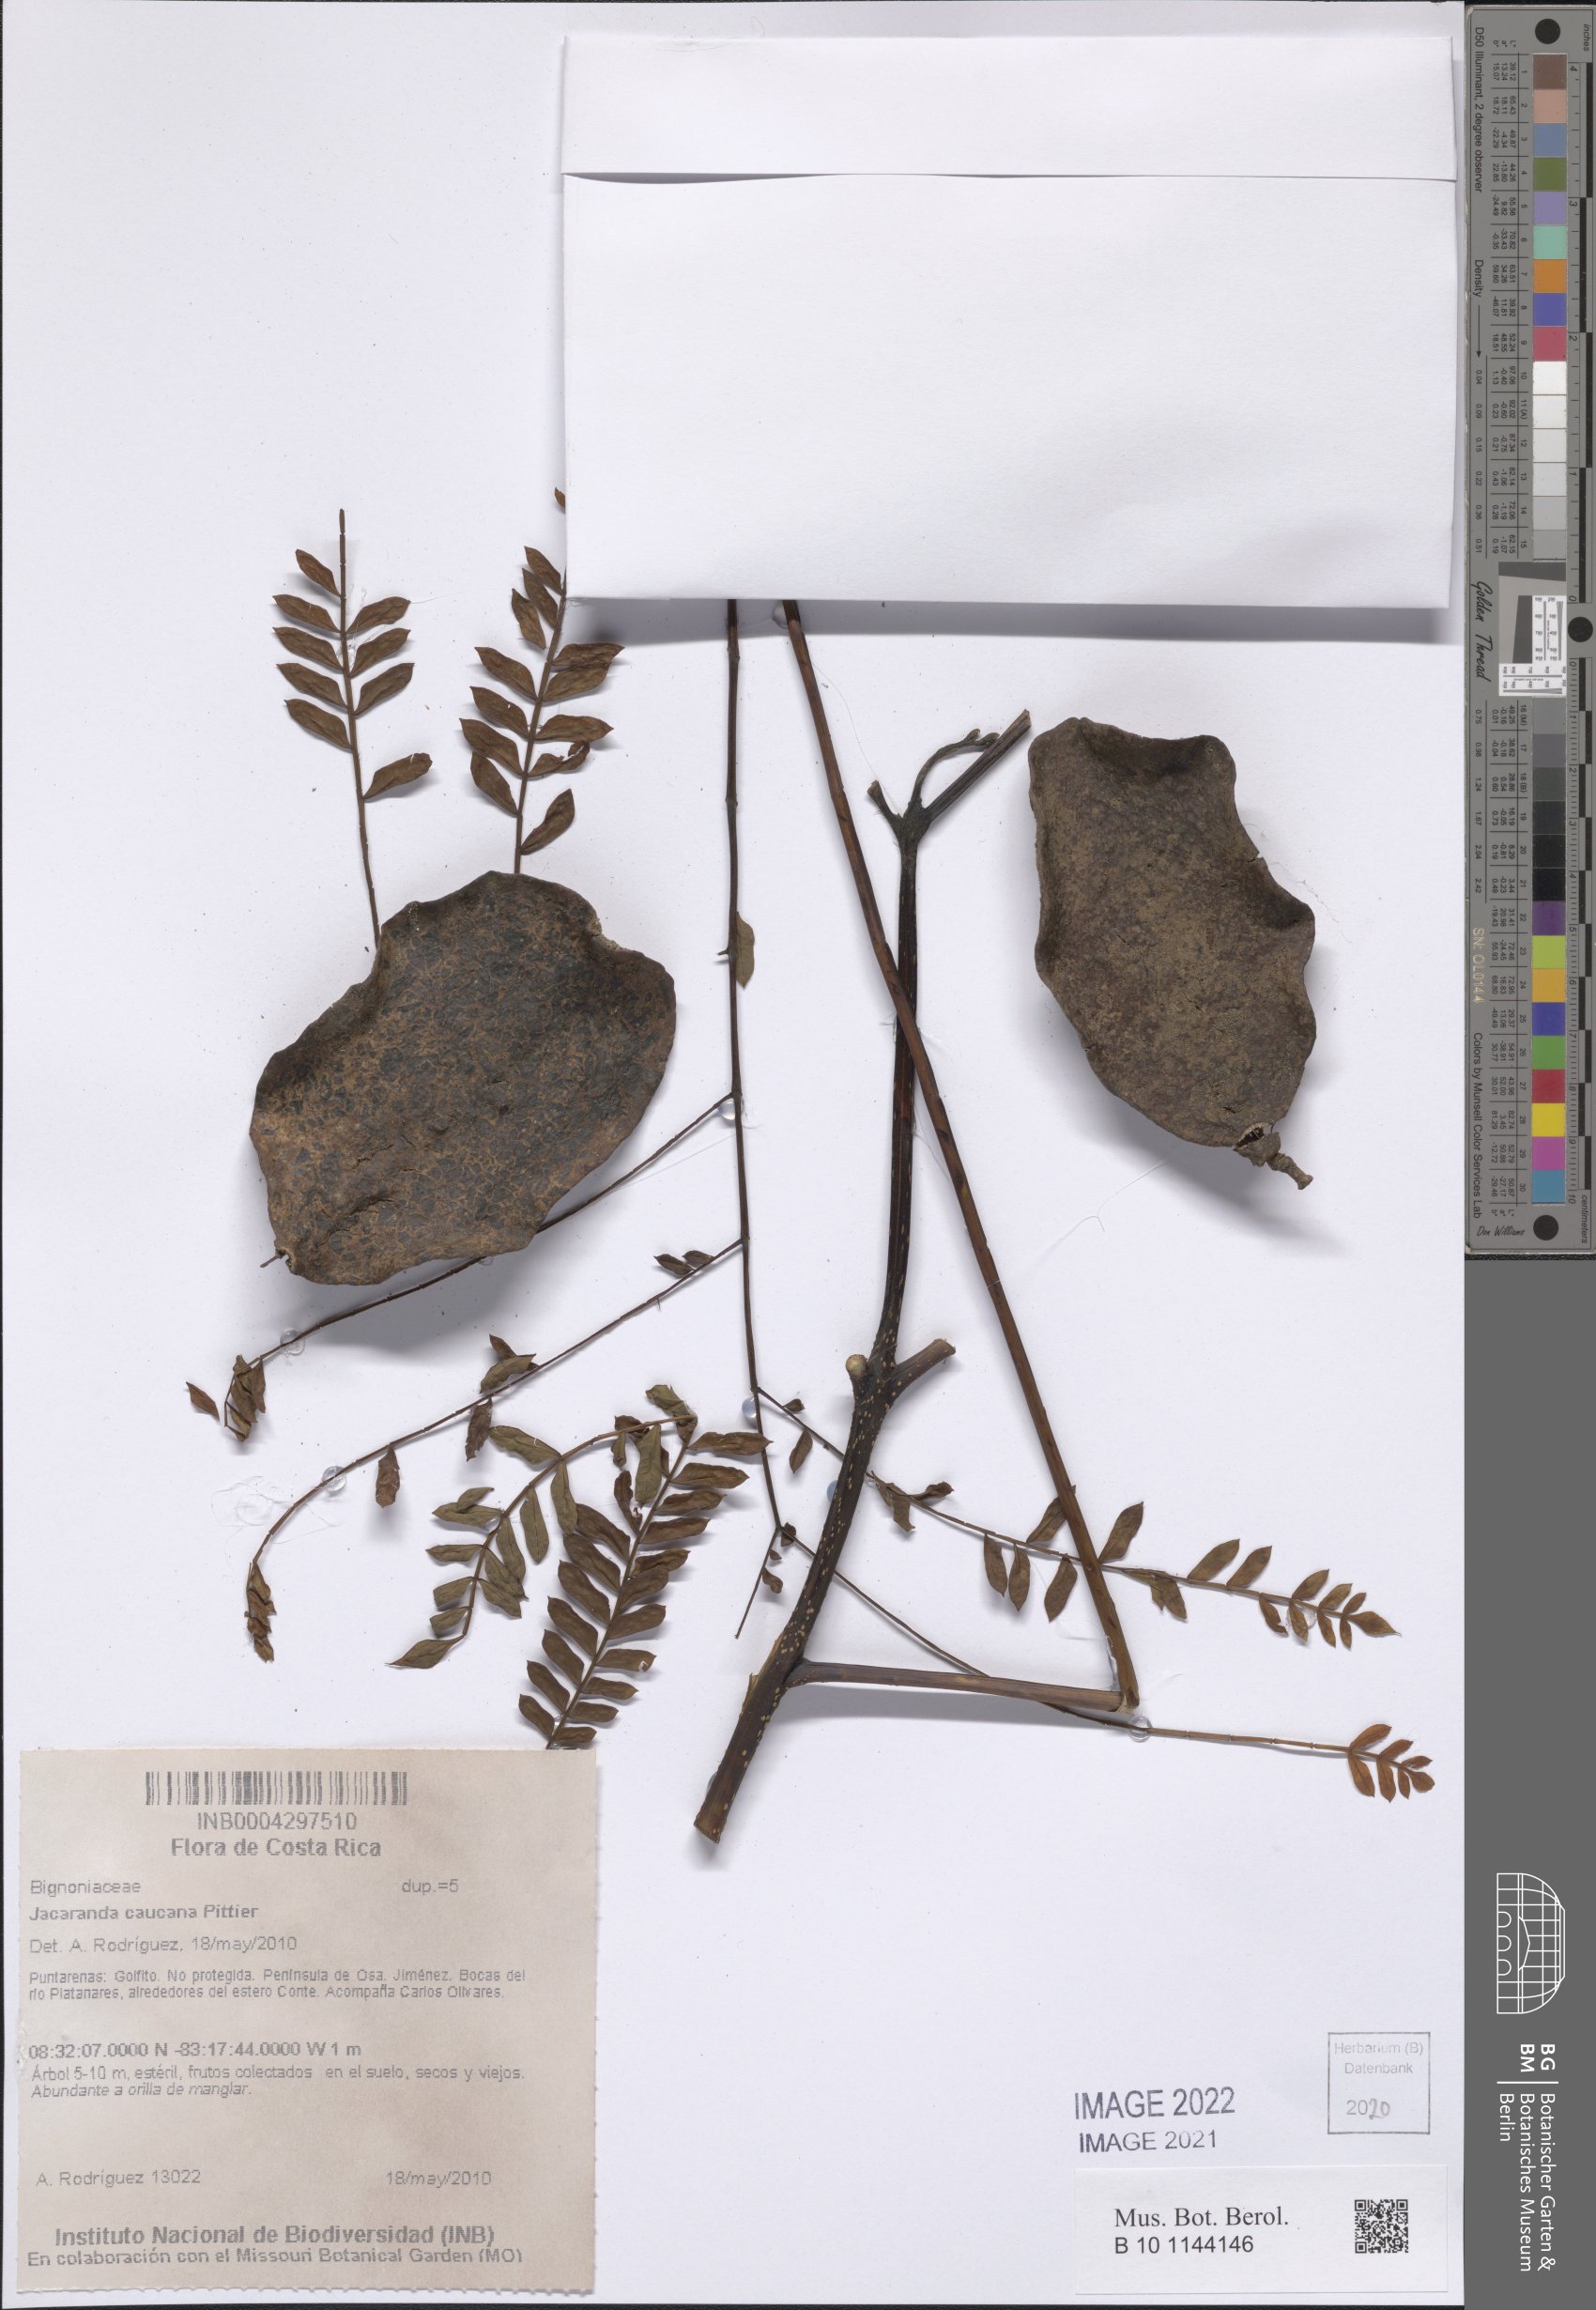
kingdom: Plantae
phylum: Tracheophyta
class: Magnoliopsida
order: Lamiales
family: Bignoniaceae
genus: Jacaranda
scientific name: Jacaranda caucana
